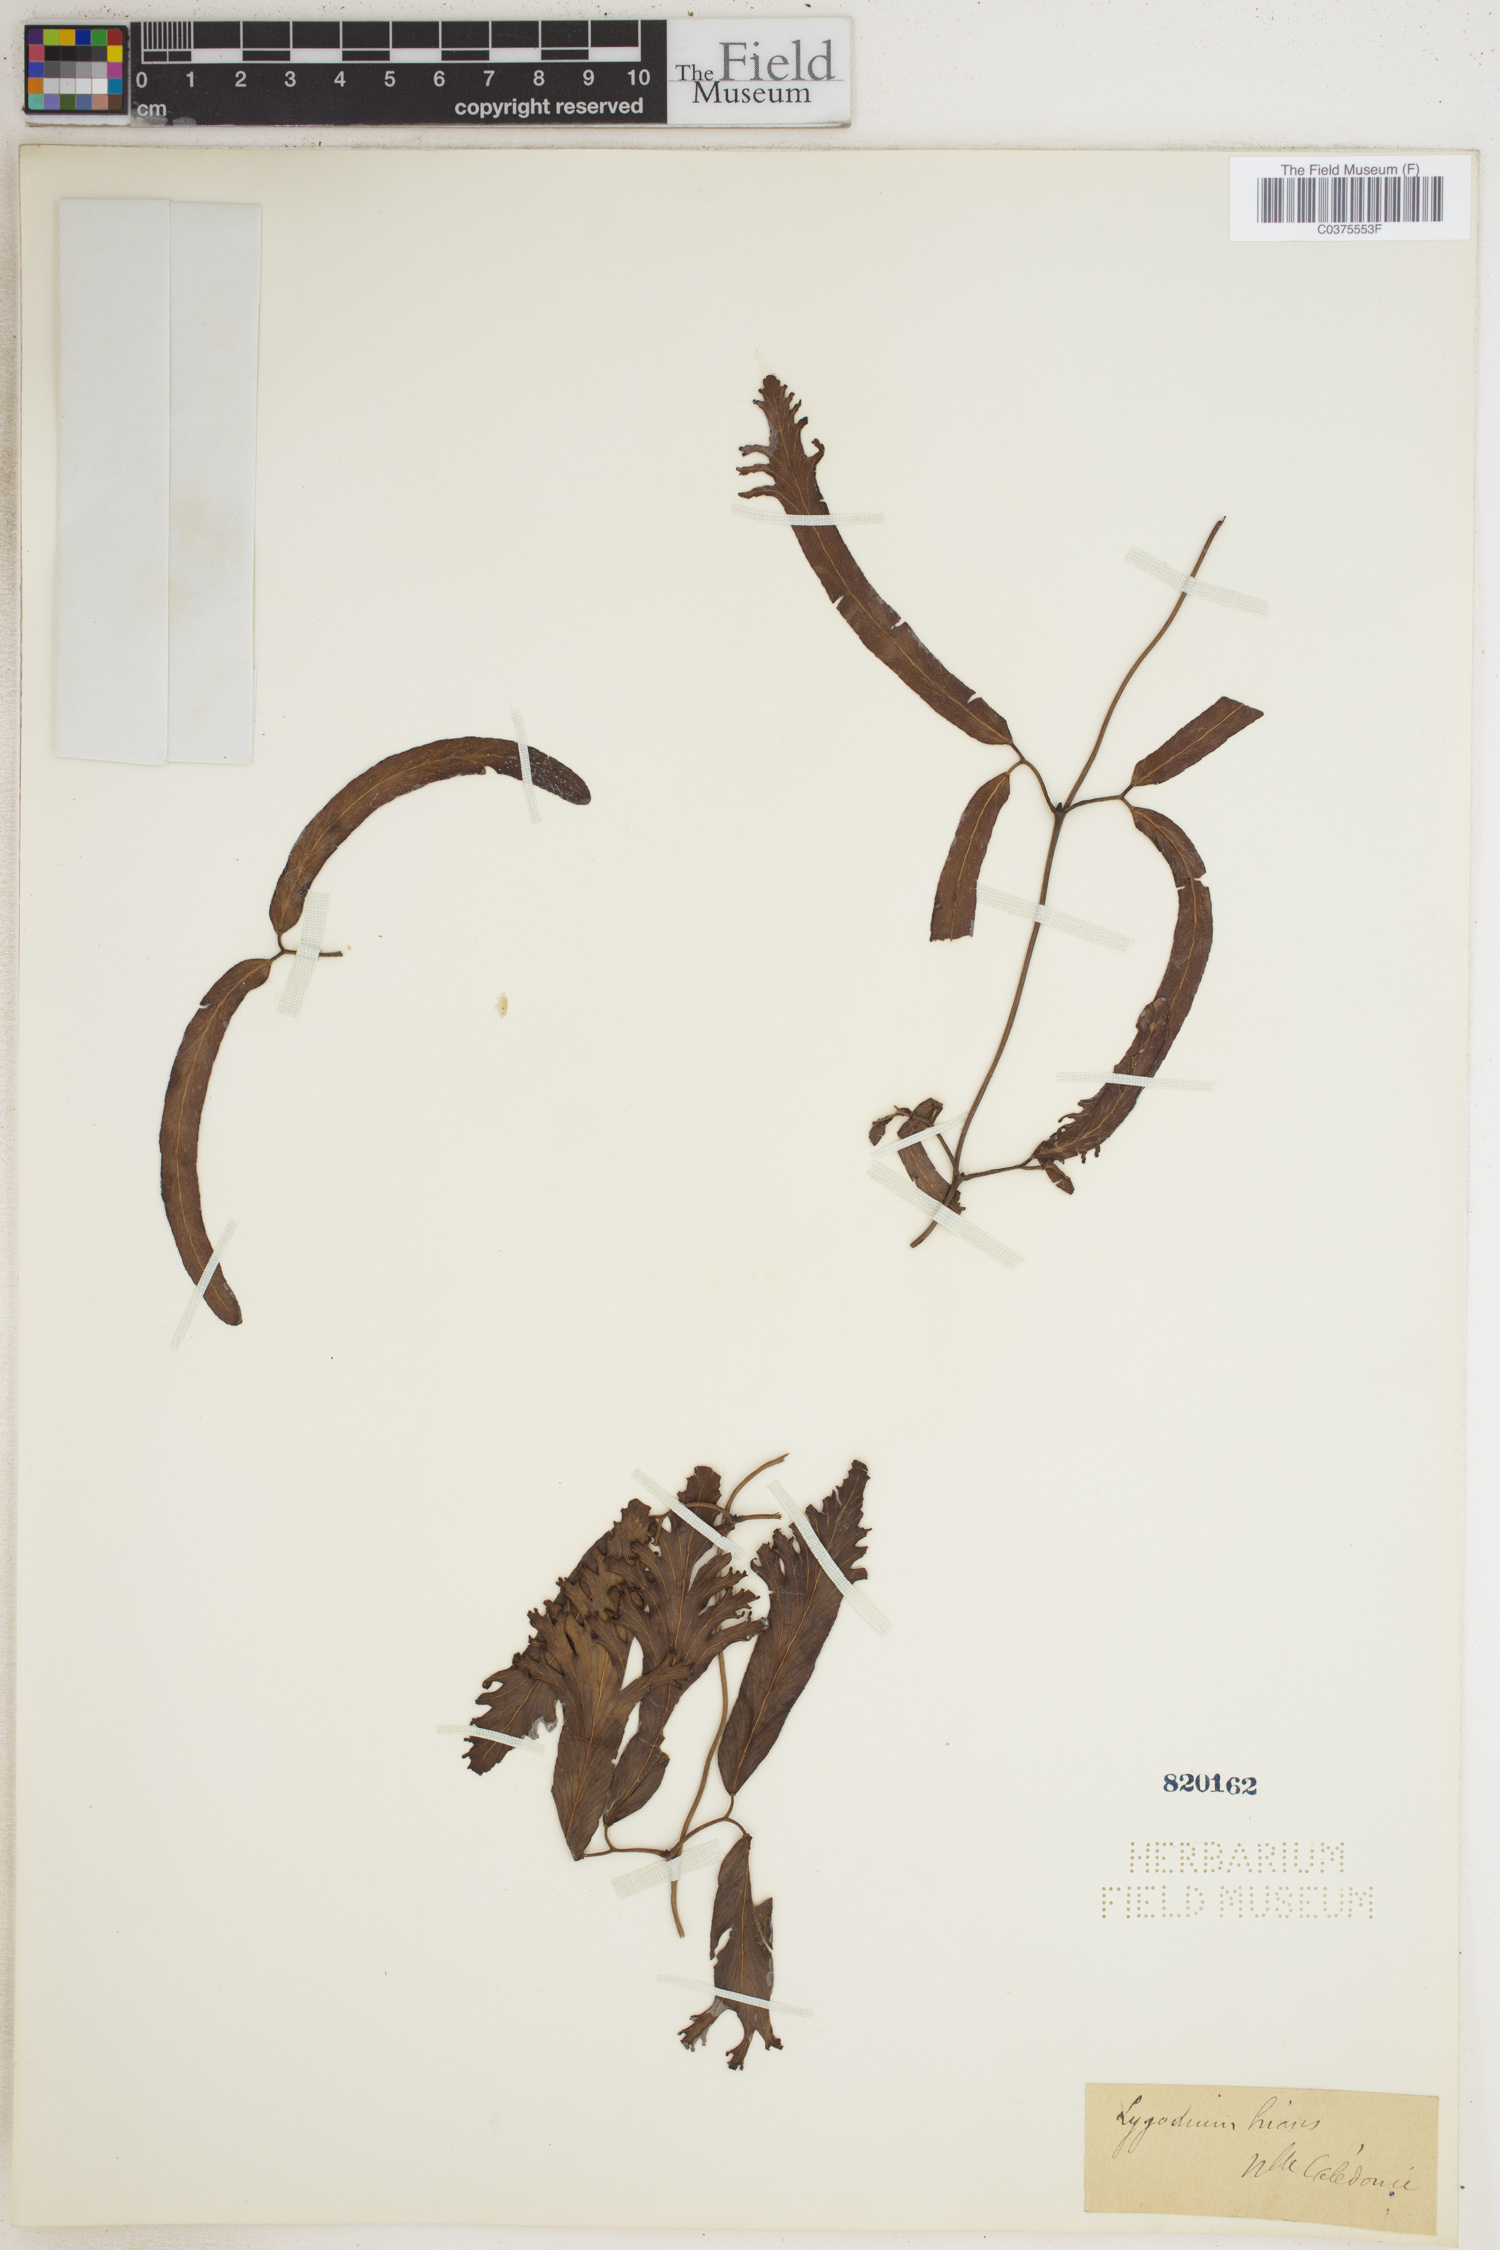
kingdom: Plantae
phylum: Tracheophyta
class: Polypodiopsida
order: Schizaeales
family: Lygodiaceae
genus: Lygodium
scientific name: Lygodium hians
